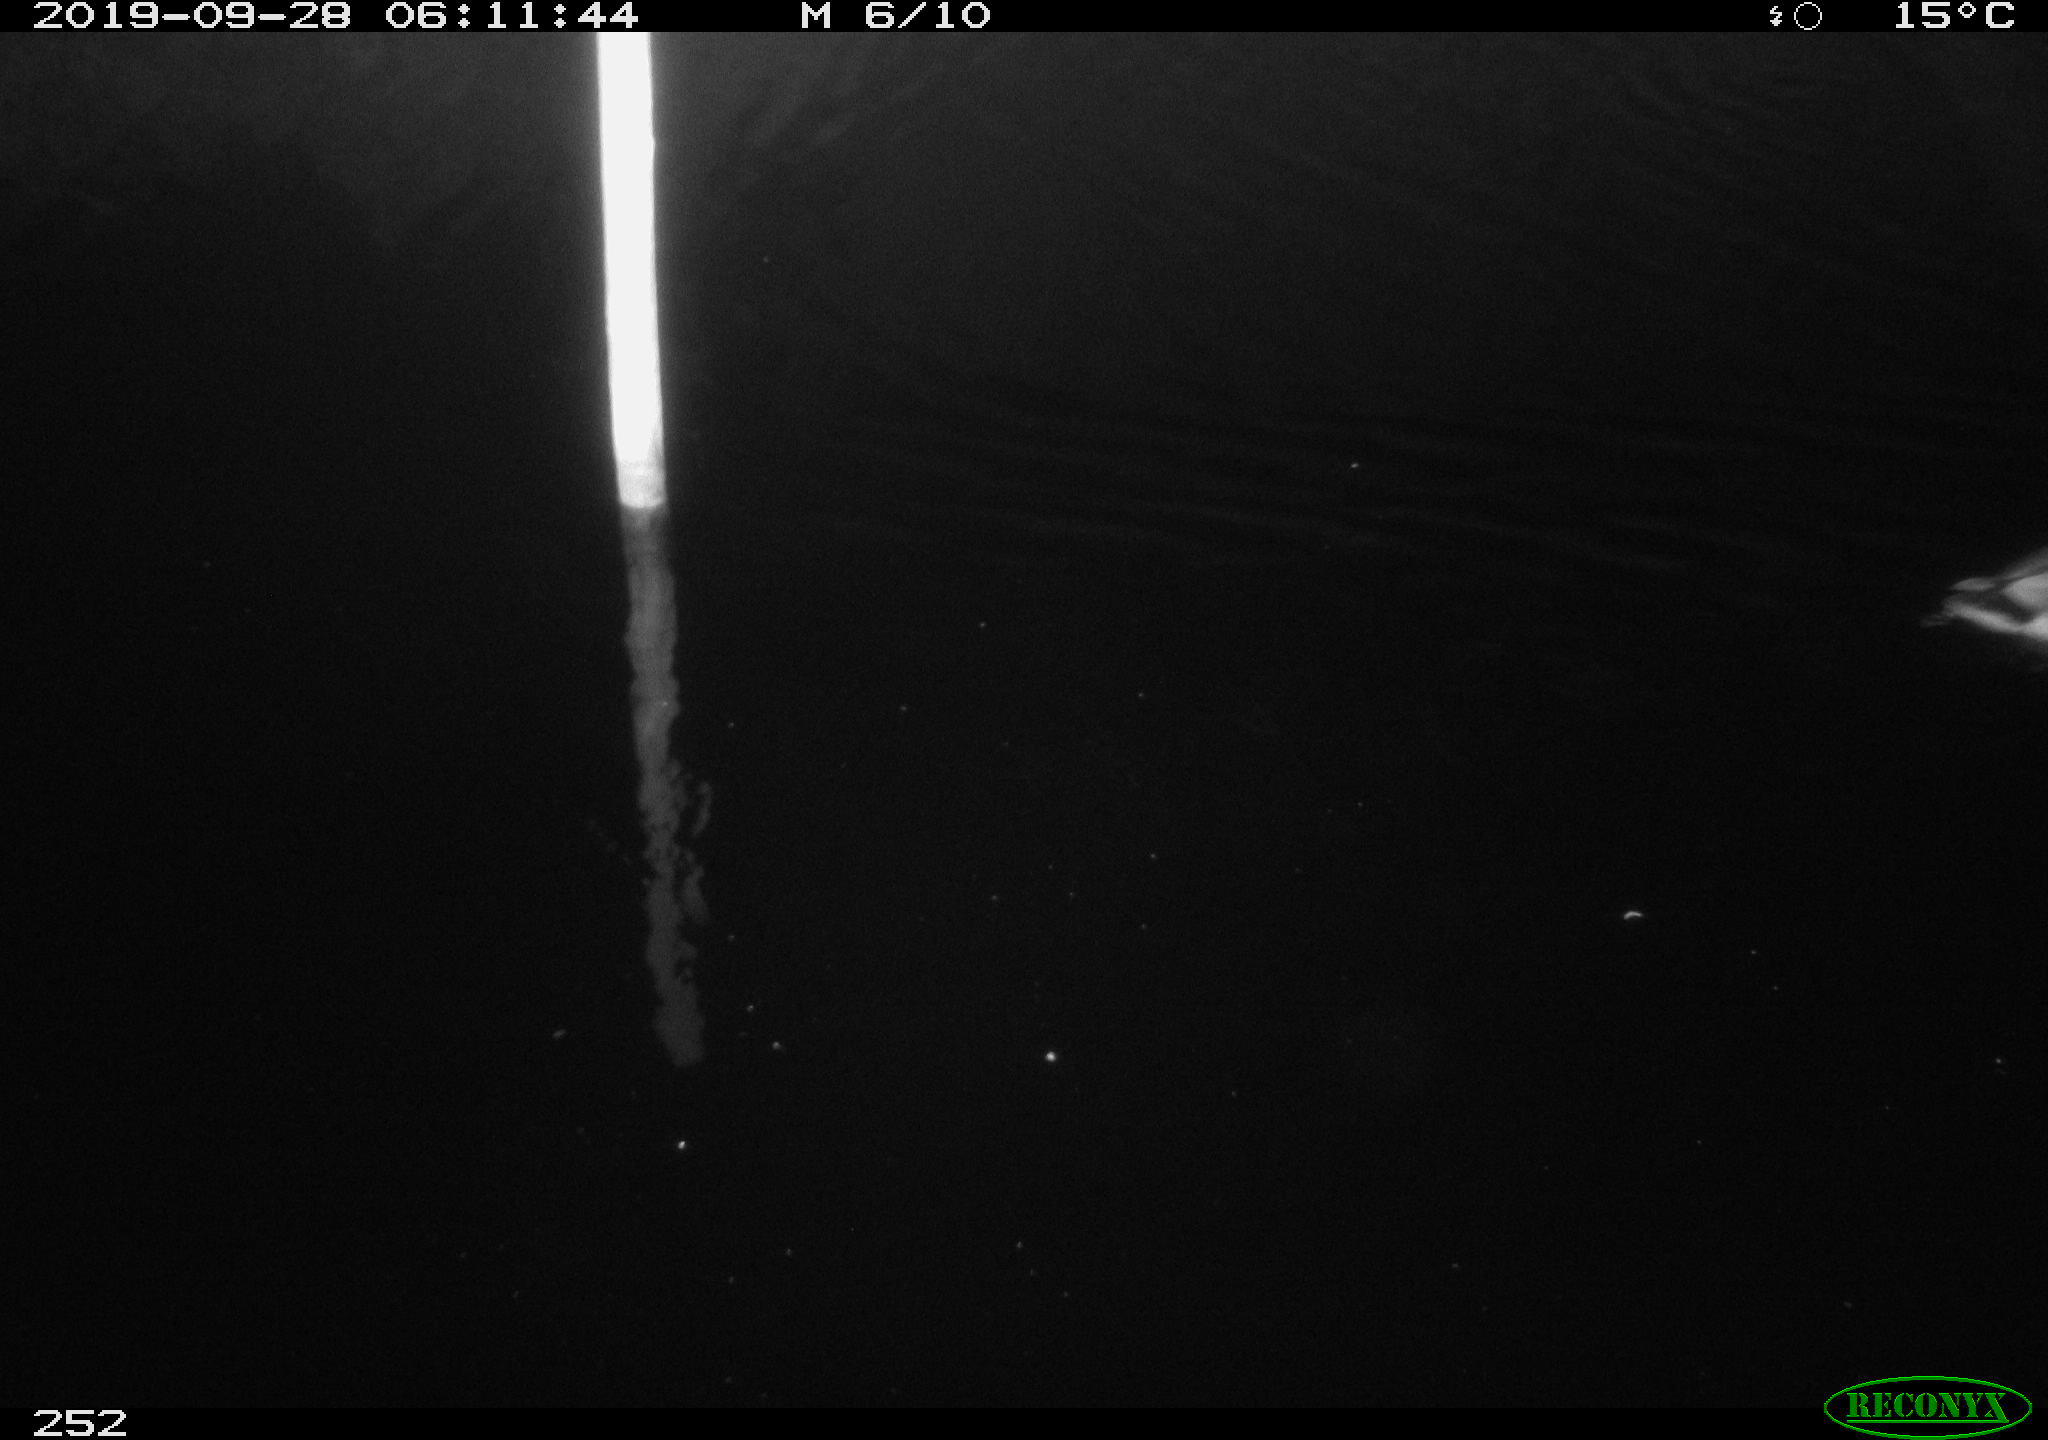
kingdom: Animalia
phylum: Chordata
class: Aves
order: Anseriformes
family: Anatidae
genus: Anas
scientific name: Anas platyrhynchos
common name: Mallard
